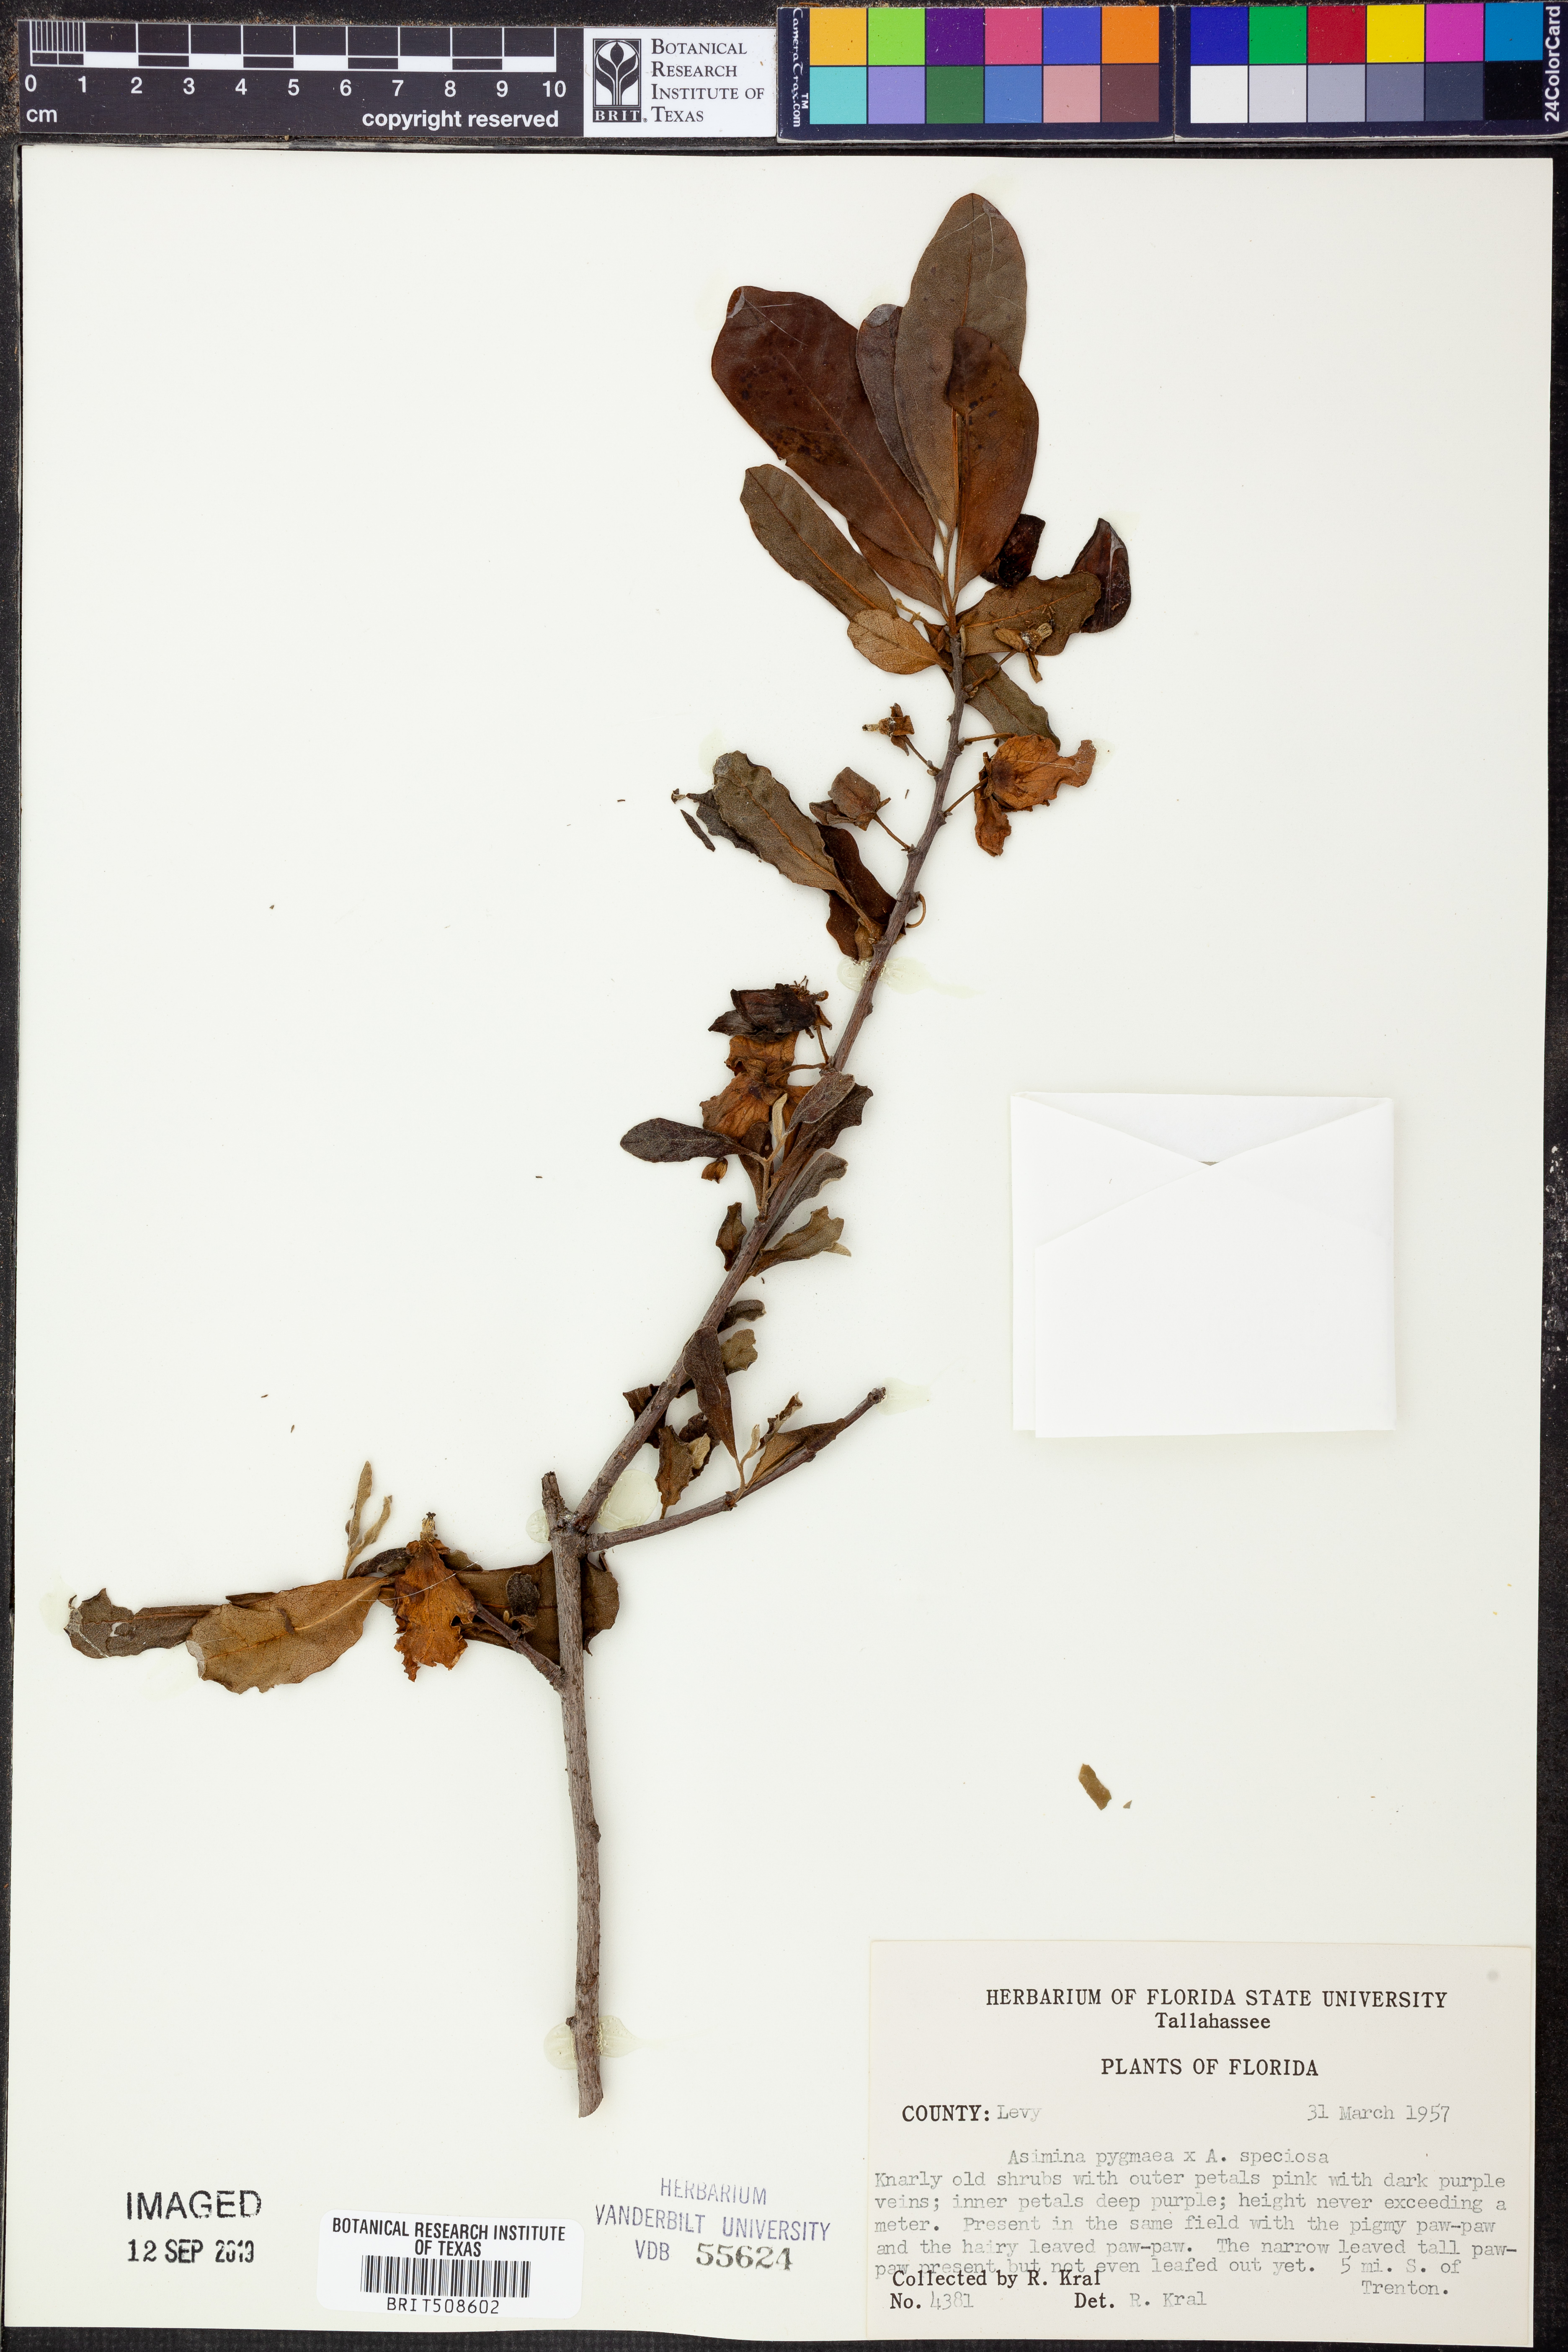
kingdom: Plantae
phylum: Tracheophyta
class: Magnoliopsida
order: Magnoliales
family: Annonaceae
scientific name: Annonaceae
